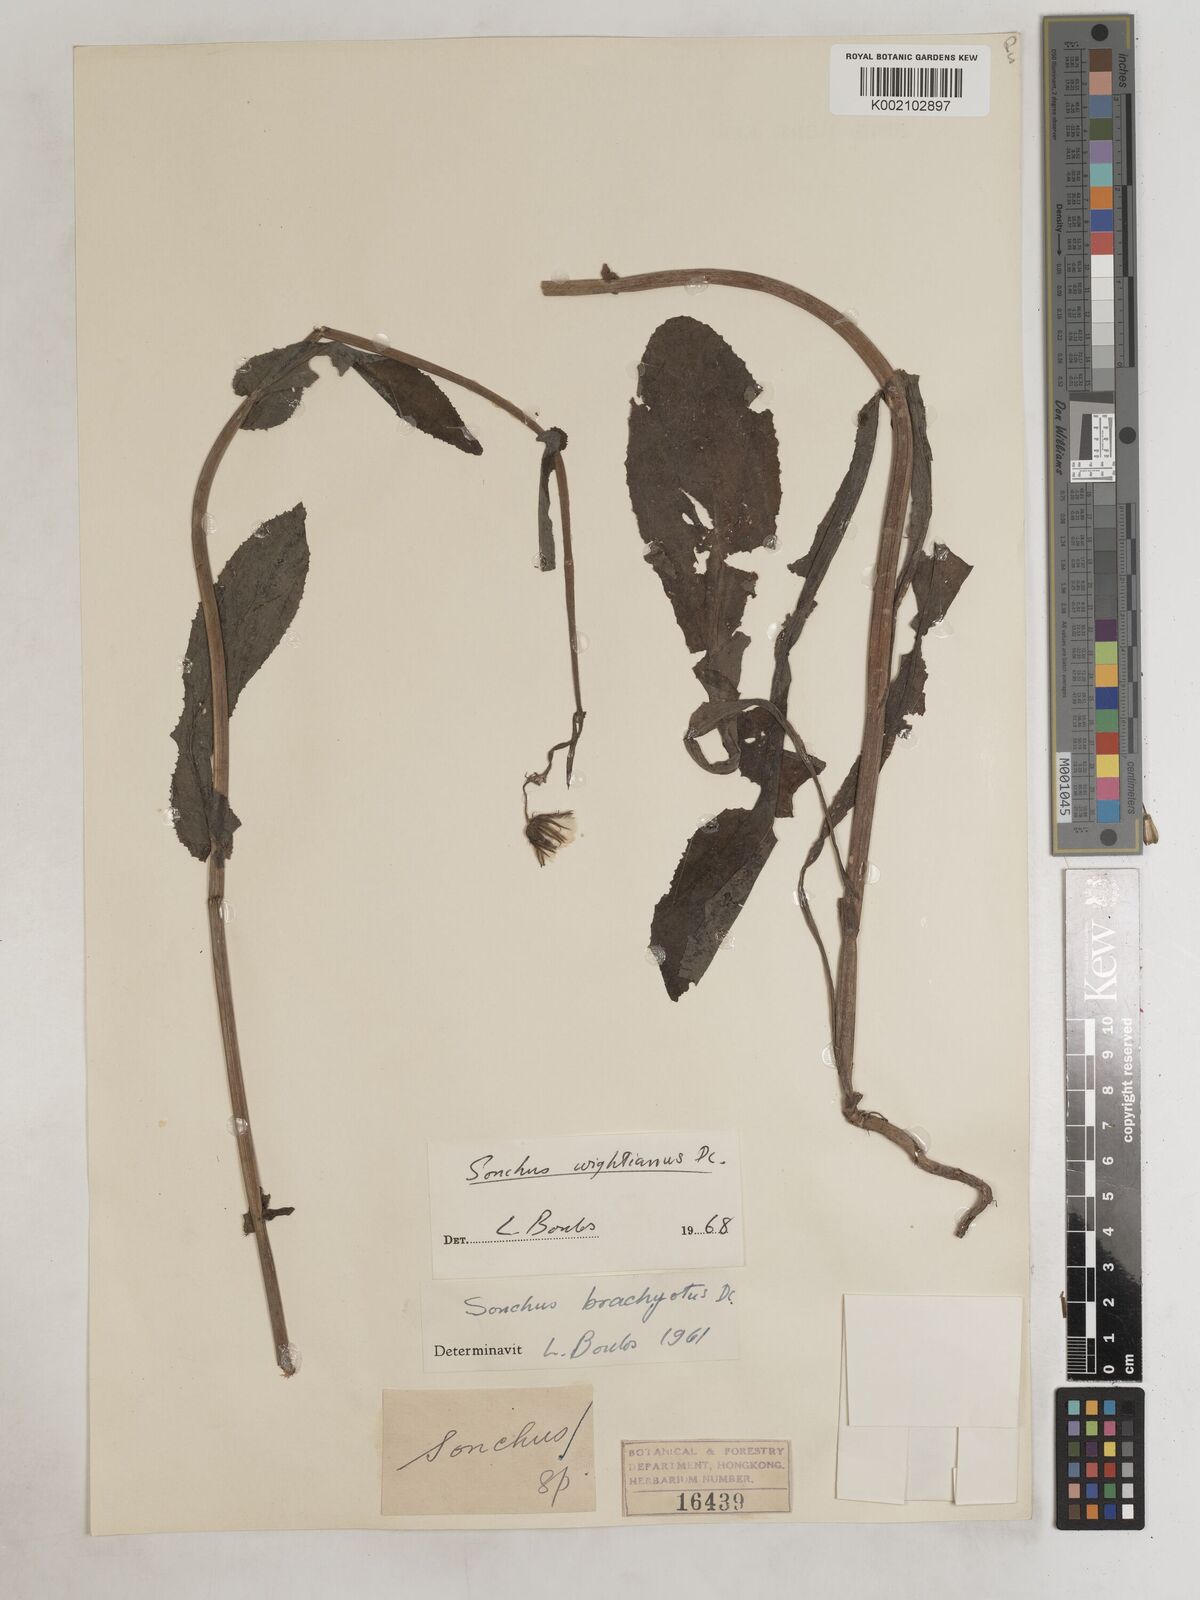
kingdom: Plantae
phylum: Tracheophyta
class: Magnoliopsida
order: Asterales
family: Asteraceae
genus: Sonchus
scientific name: Sonchus wightianus
